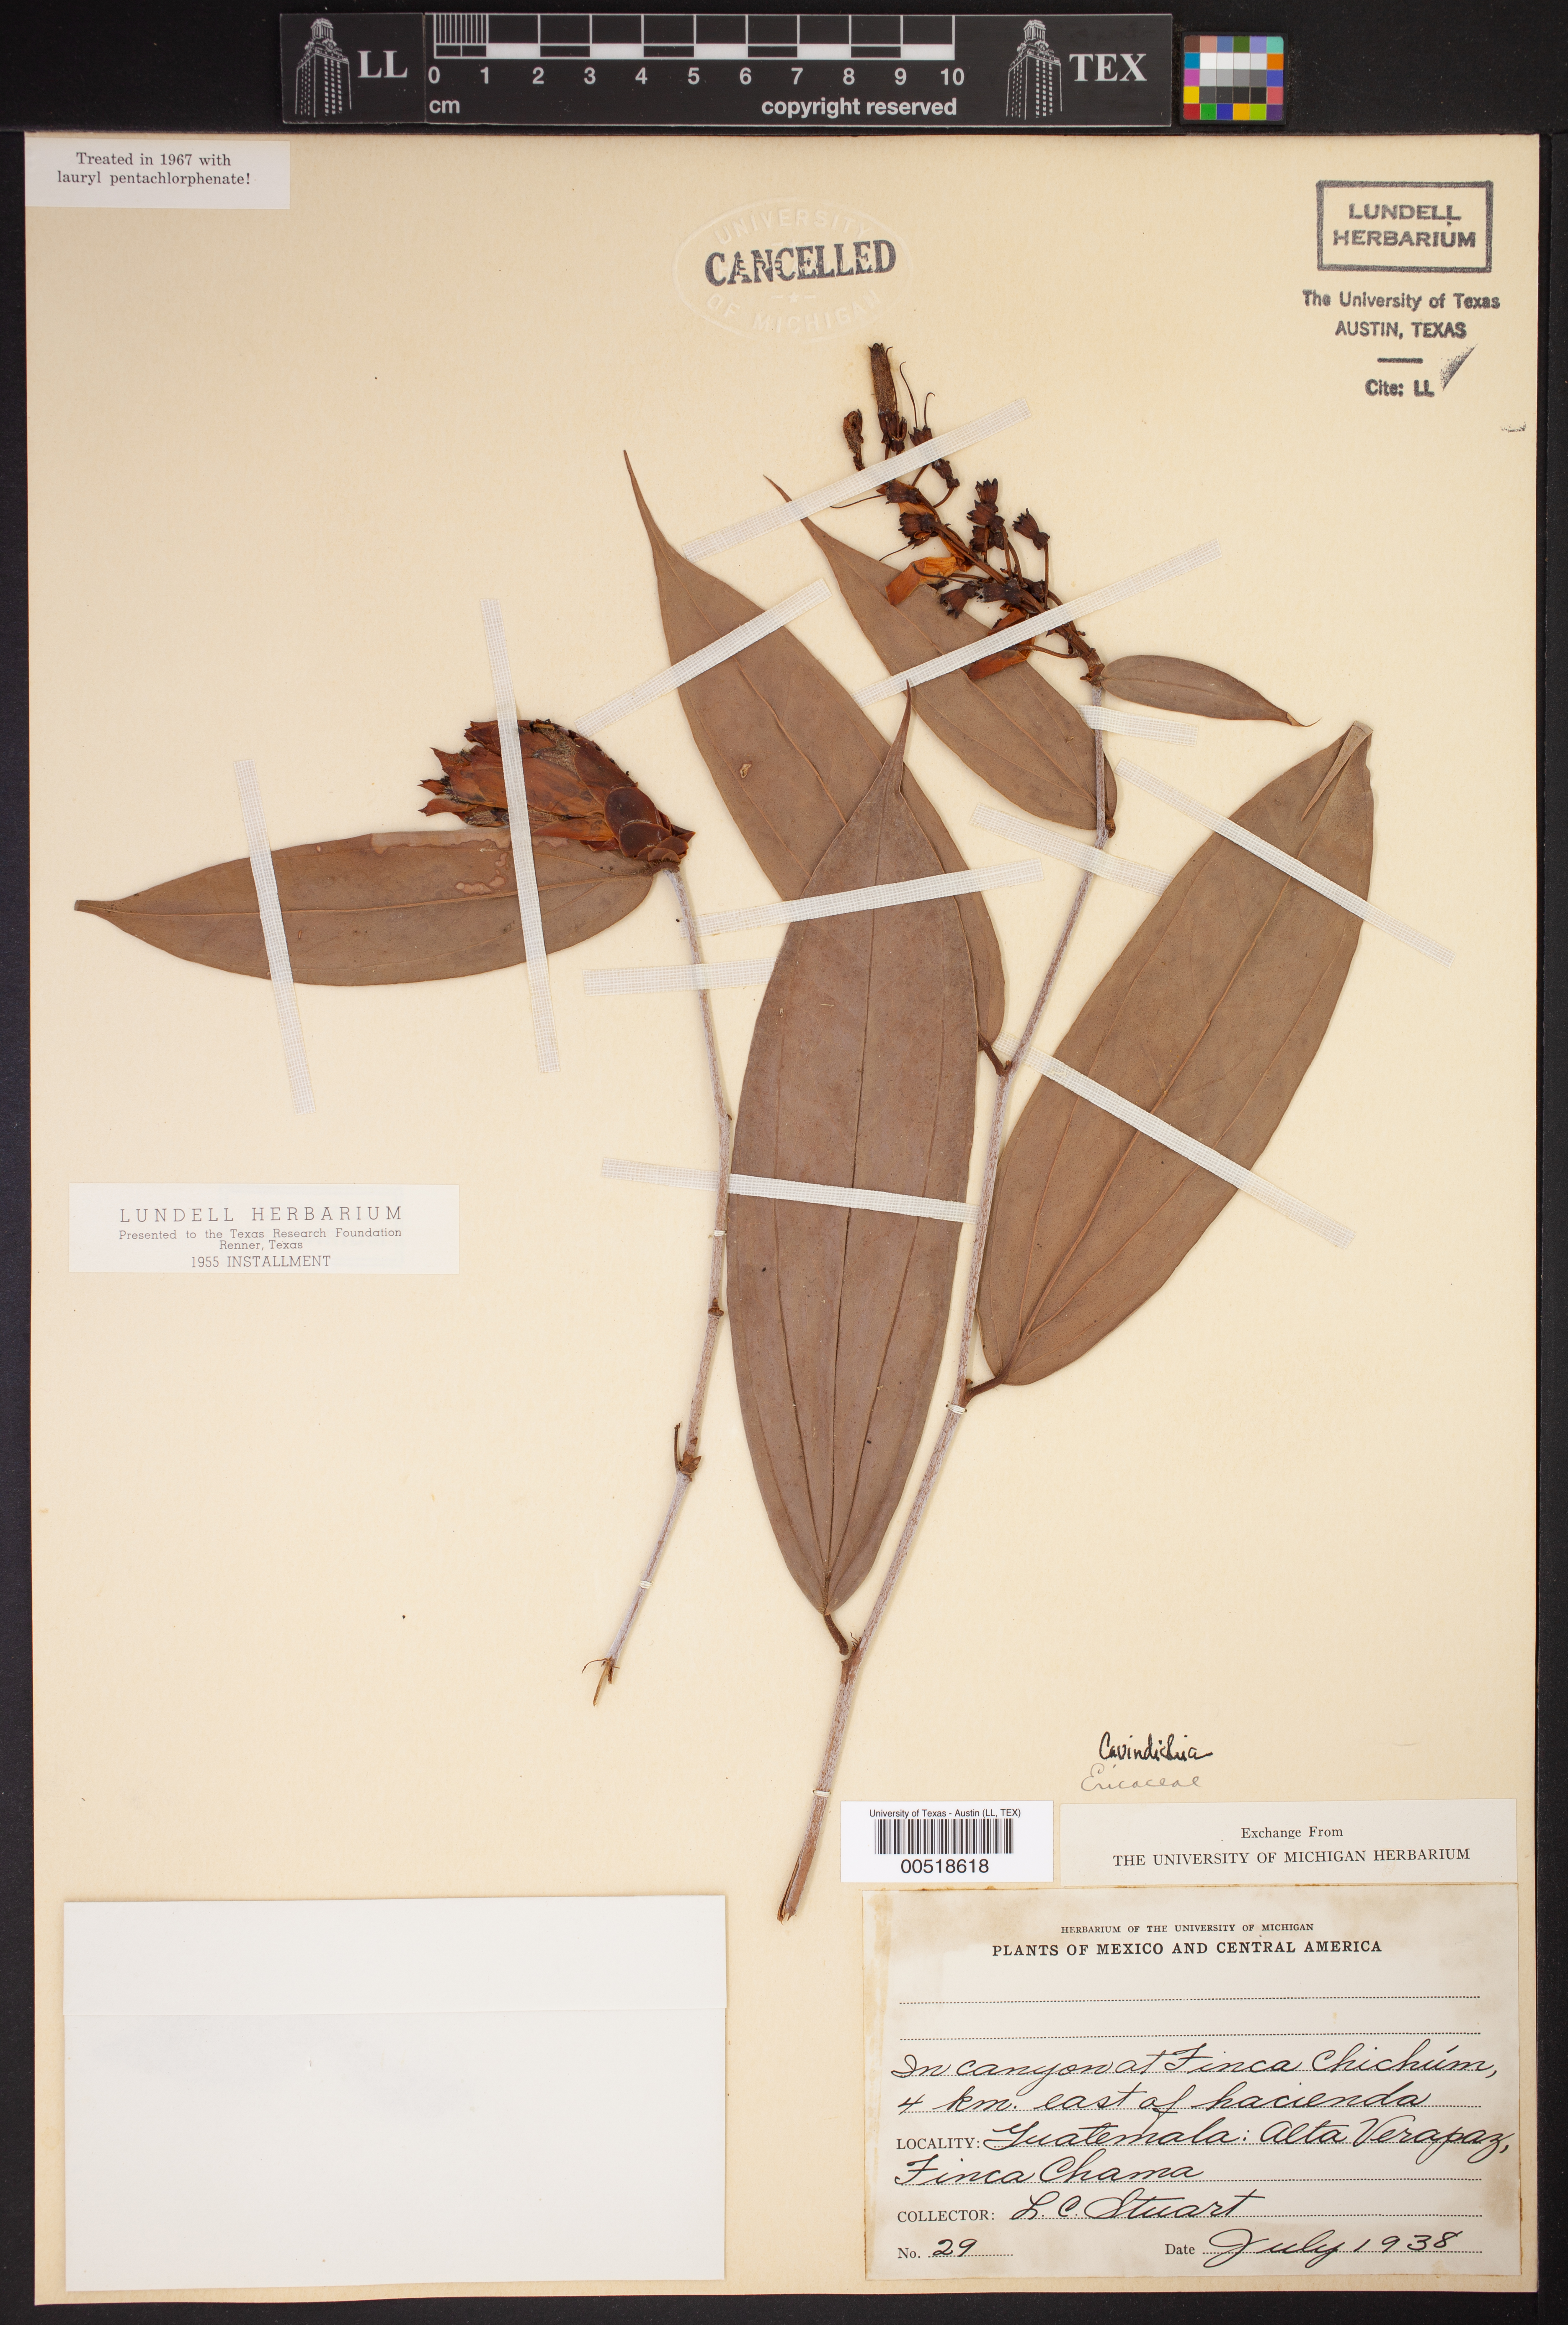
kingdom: Plantae
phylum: Tracheophyta
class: Magnoliopsida
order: Ericales
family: Ericaceae
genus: Cavendishia
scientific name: Cavendishia
